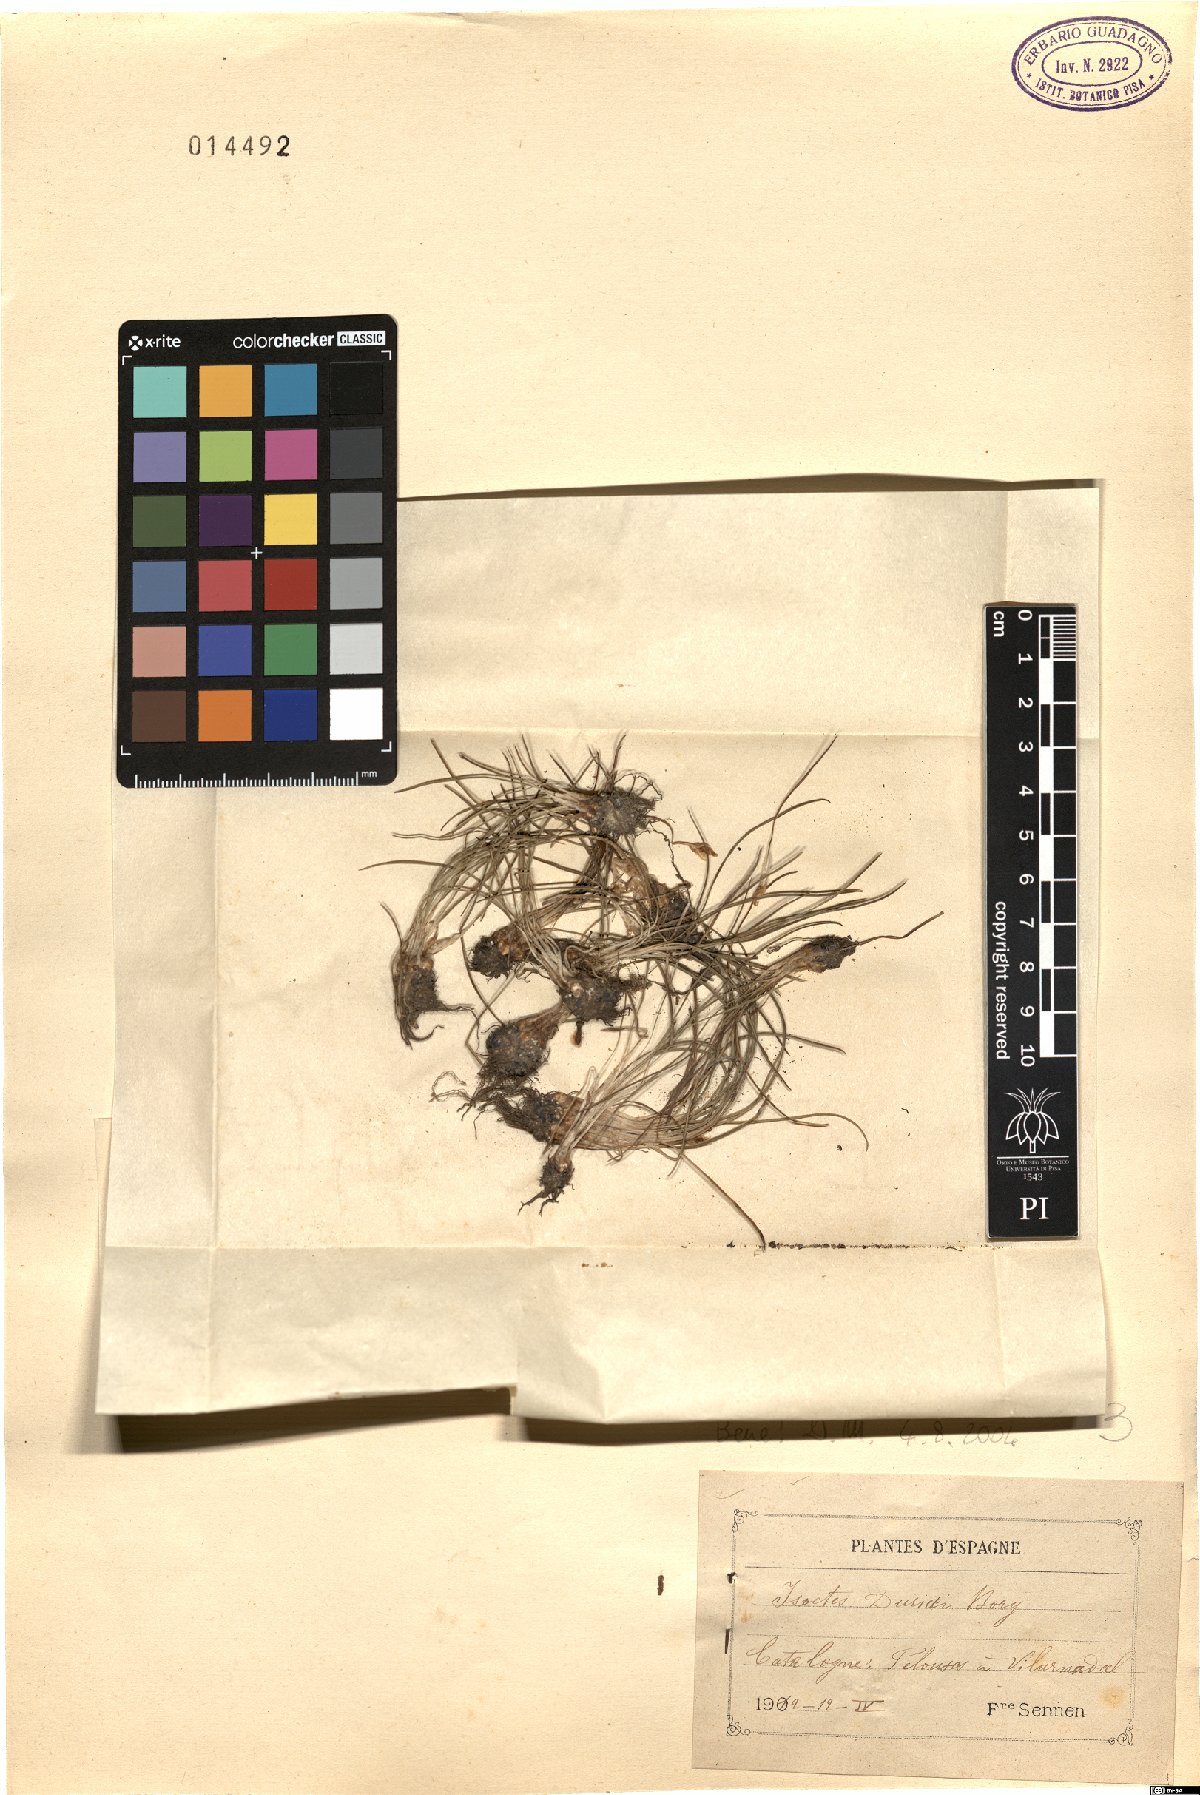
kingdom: Plantae
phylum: Tracheophyta
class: Lycopodiopsida
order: Isoetales
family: Isoetaceae
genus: Isoetes
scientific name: Isoetes duriei
